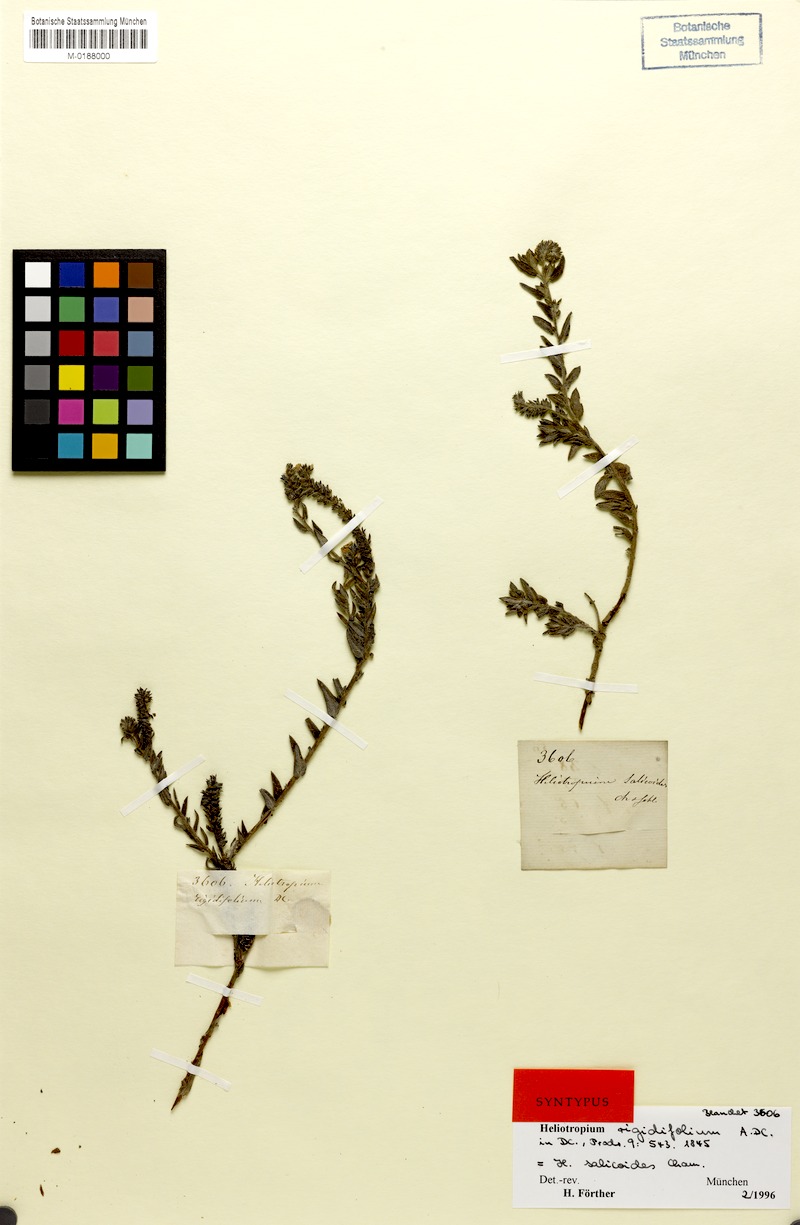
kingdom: Plantae
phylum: Tracheophyta
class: Magnoliopsida
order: Boraginales
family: Heliotropiaceae
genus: Euploca
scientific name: Euploca salicoides
